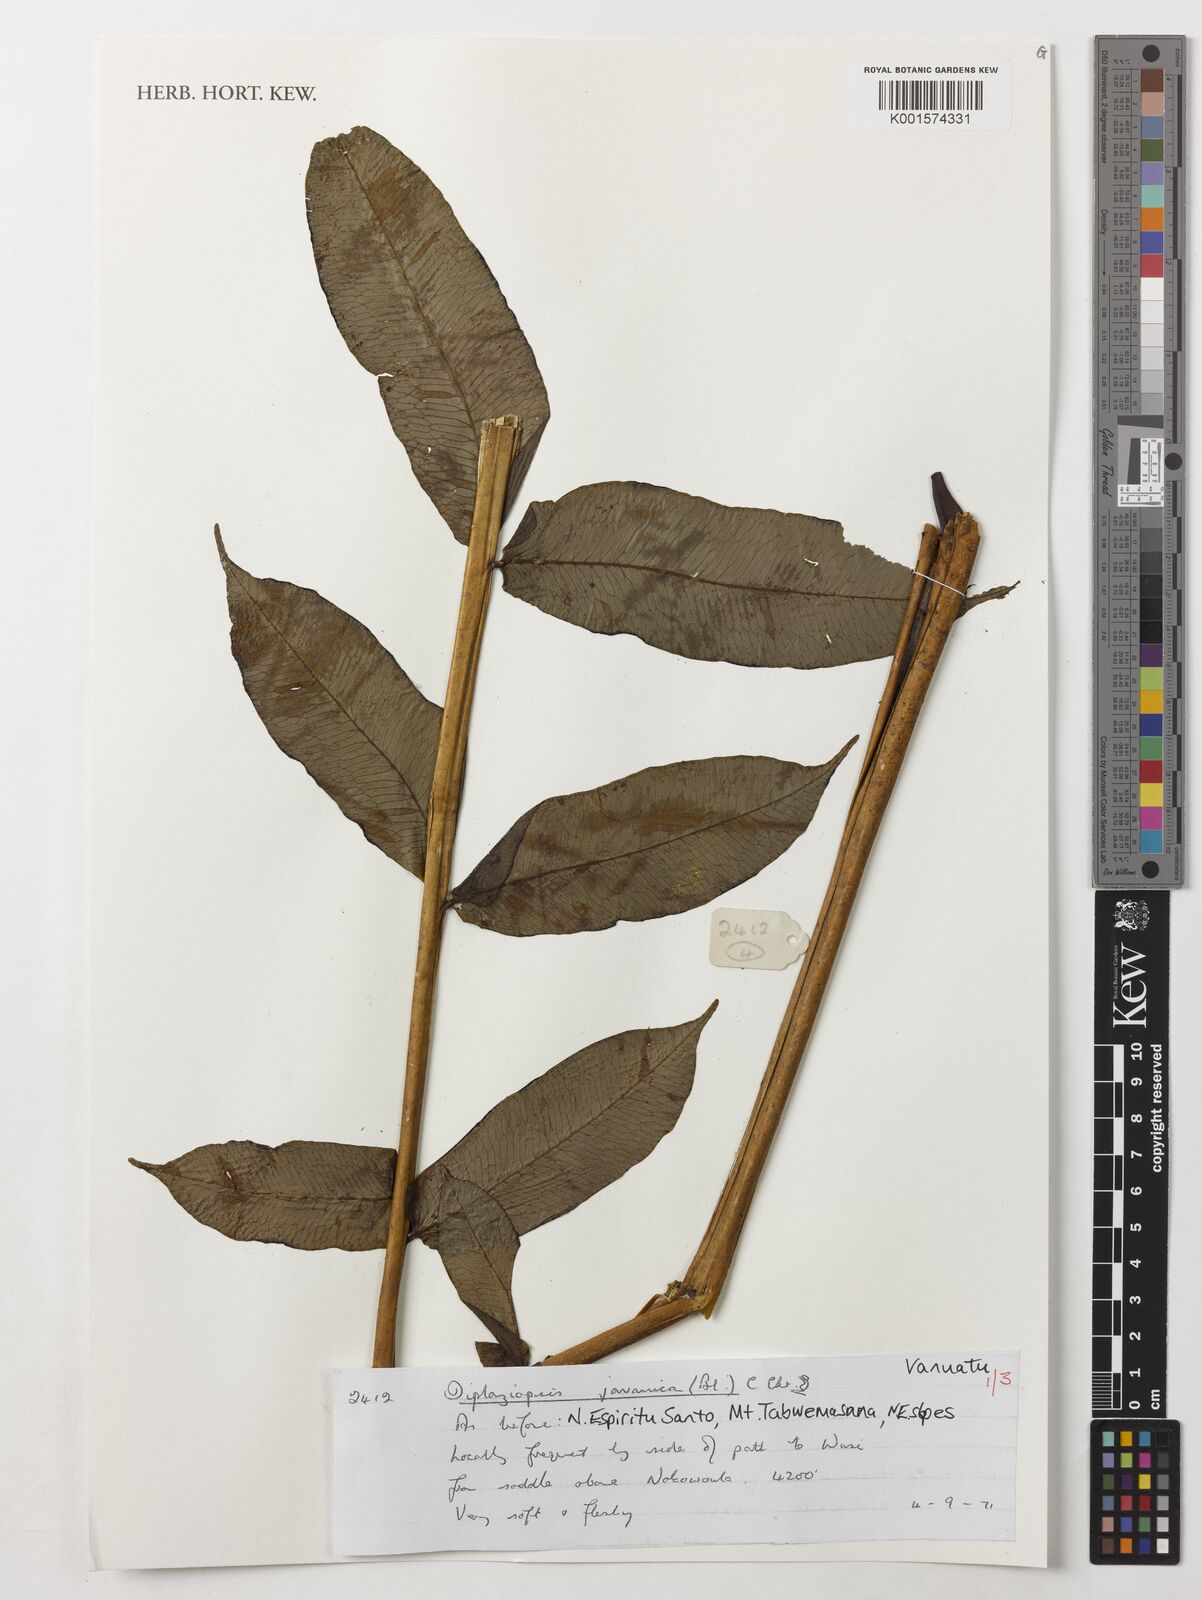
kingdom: Plantae
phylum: Tracheophyta
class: Polypodiopsida
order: Polypodiales
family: Diplaziopsidaceae
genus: Diplaziopsis
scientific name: Diplaziopsis javanica
